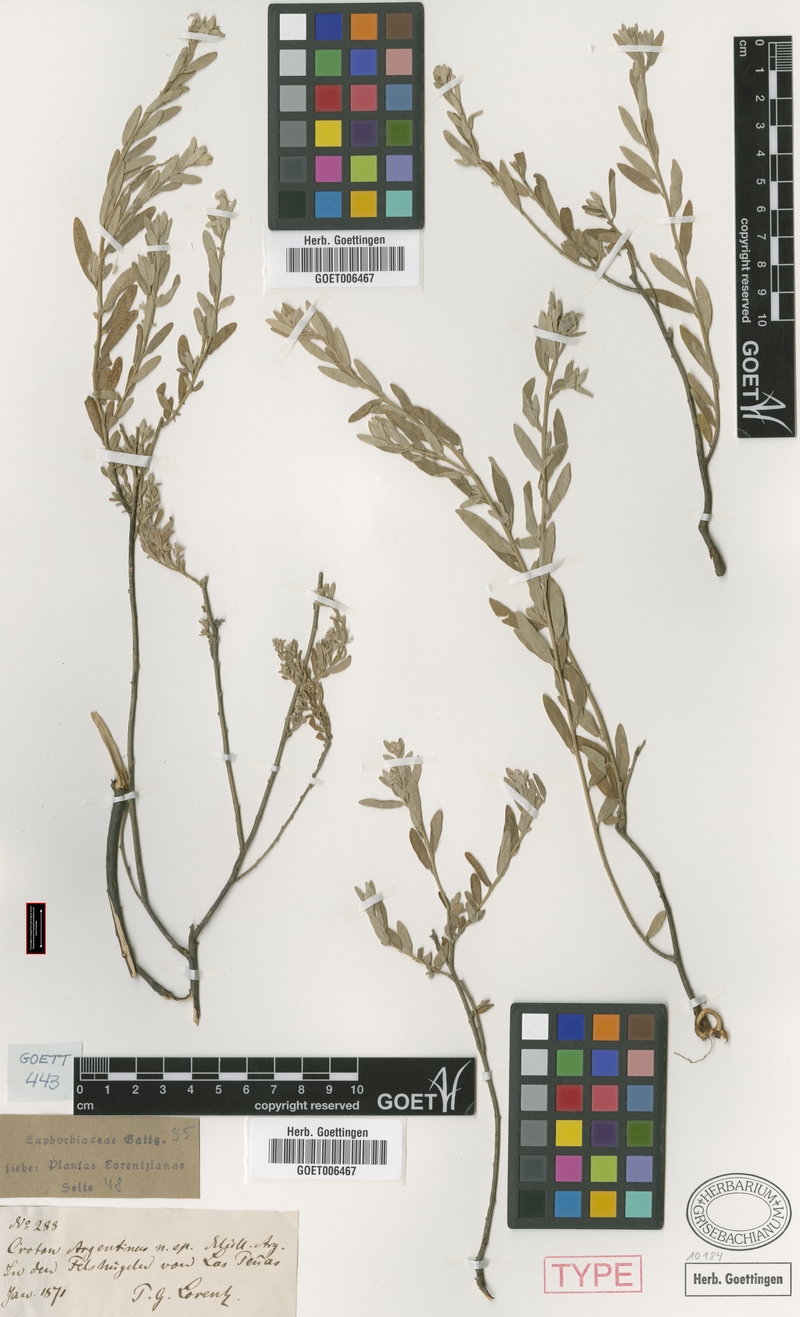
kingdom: Plantae
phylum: Tracheophyta
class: Magnoliopsida
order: Malpighiales
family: Euphorbiaceae
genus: Croton
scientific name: Croton argentinus
